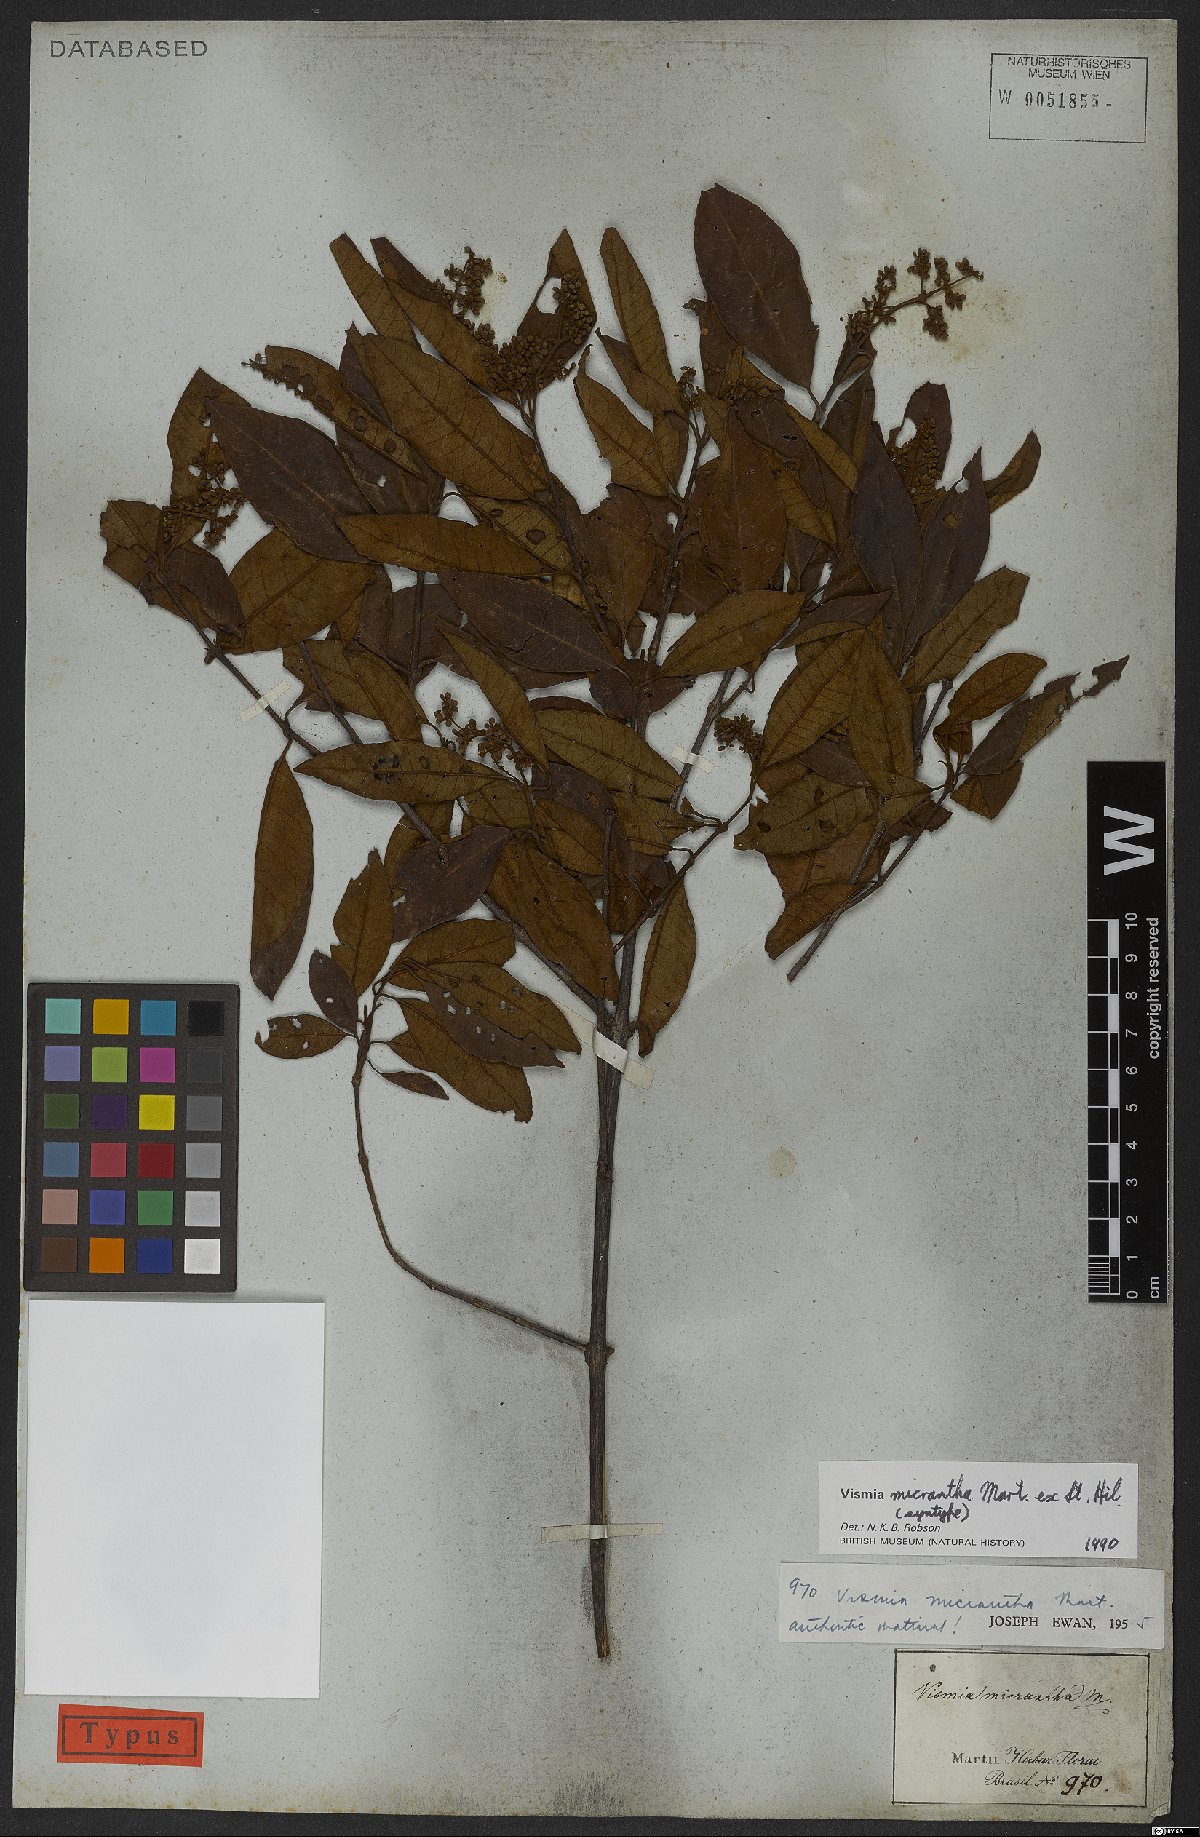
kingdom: Plantae
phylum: Tracheophyta
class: Magnoliopsida
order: Malpighiales
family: Hypericaceae
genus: Vismia
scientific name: Vismia micrantha
